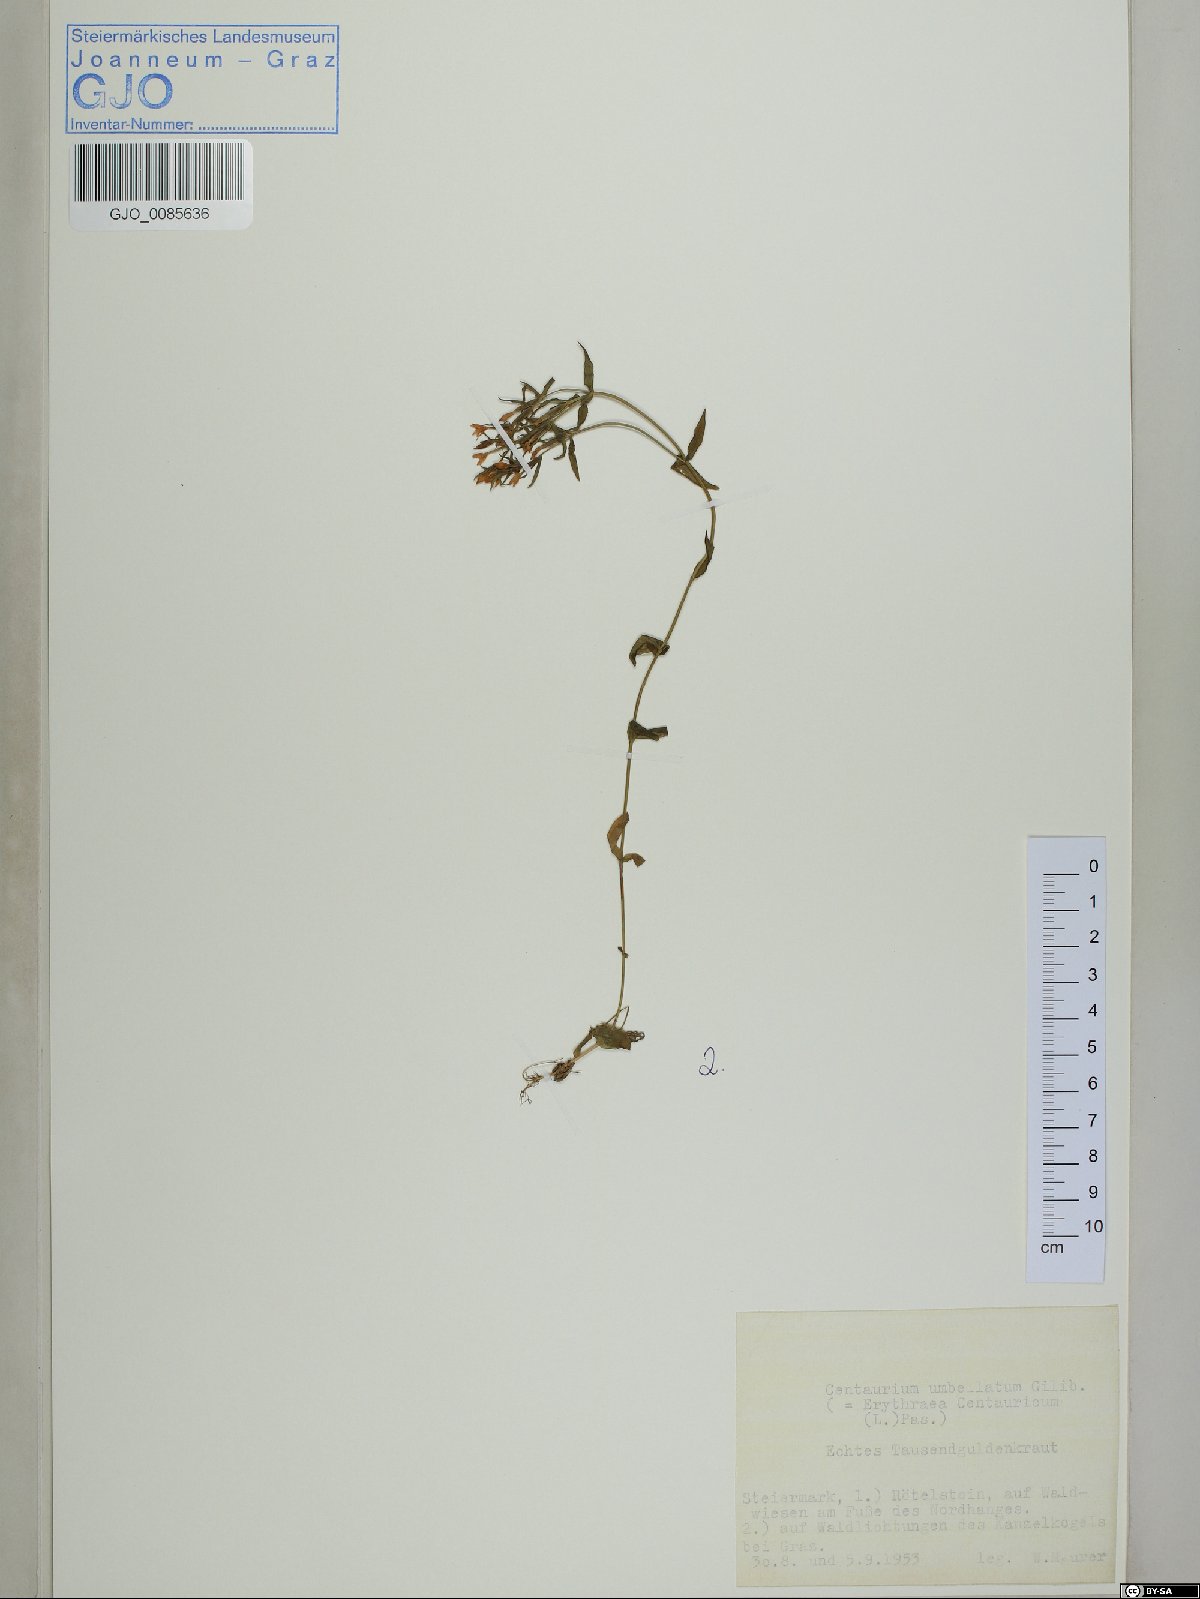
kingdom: Plantae
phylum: Tracheophyta
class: Magnoliopsida
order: Gentianales
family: Gentianaceae
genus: Centaurium
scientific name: Centaurium erythraea
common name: Common centaury
